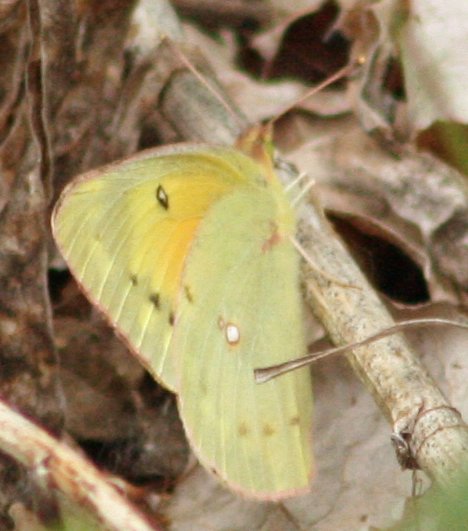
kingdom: Animalia
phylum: Arthropoda
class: Insecta
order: Lepidoptera
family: Pieridae
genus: Colias
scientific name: Colias eurytheme
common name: Orange Sulphur
